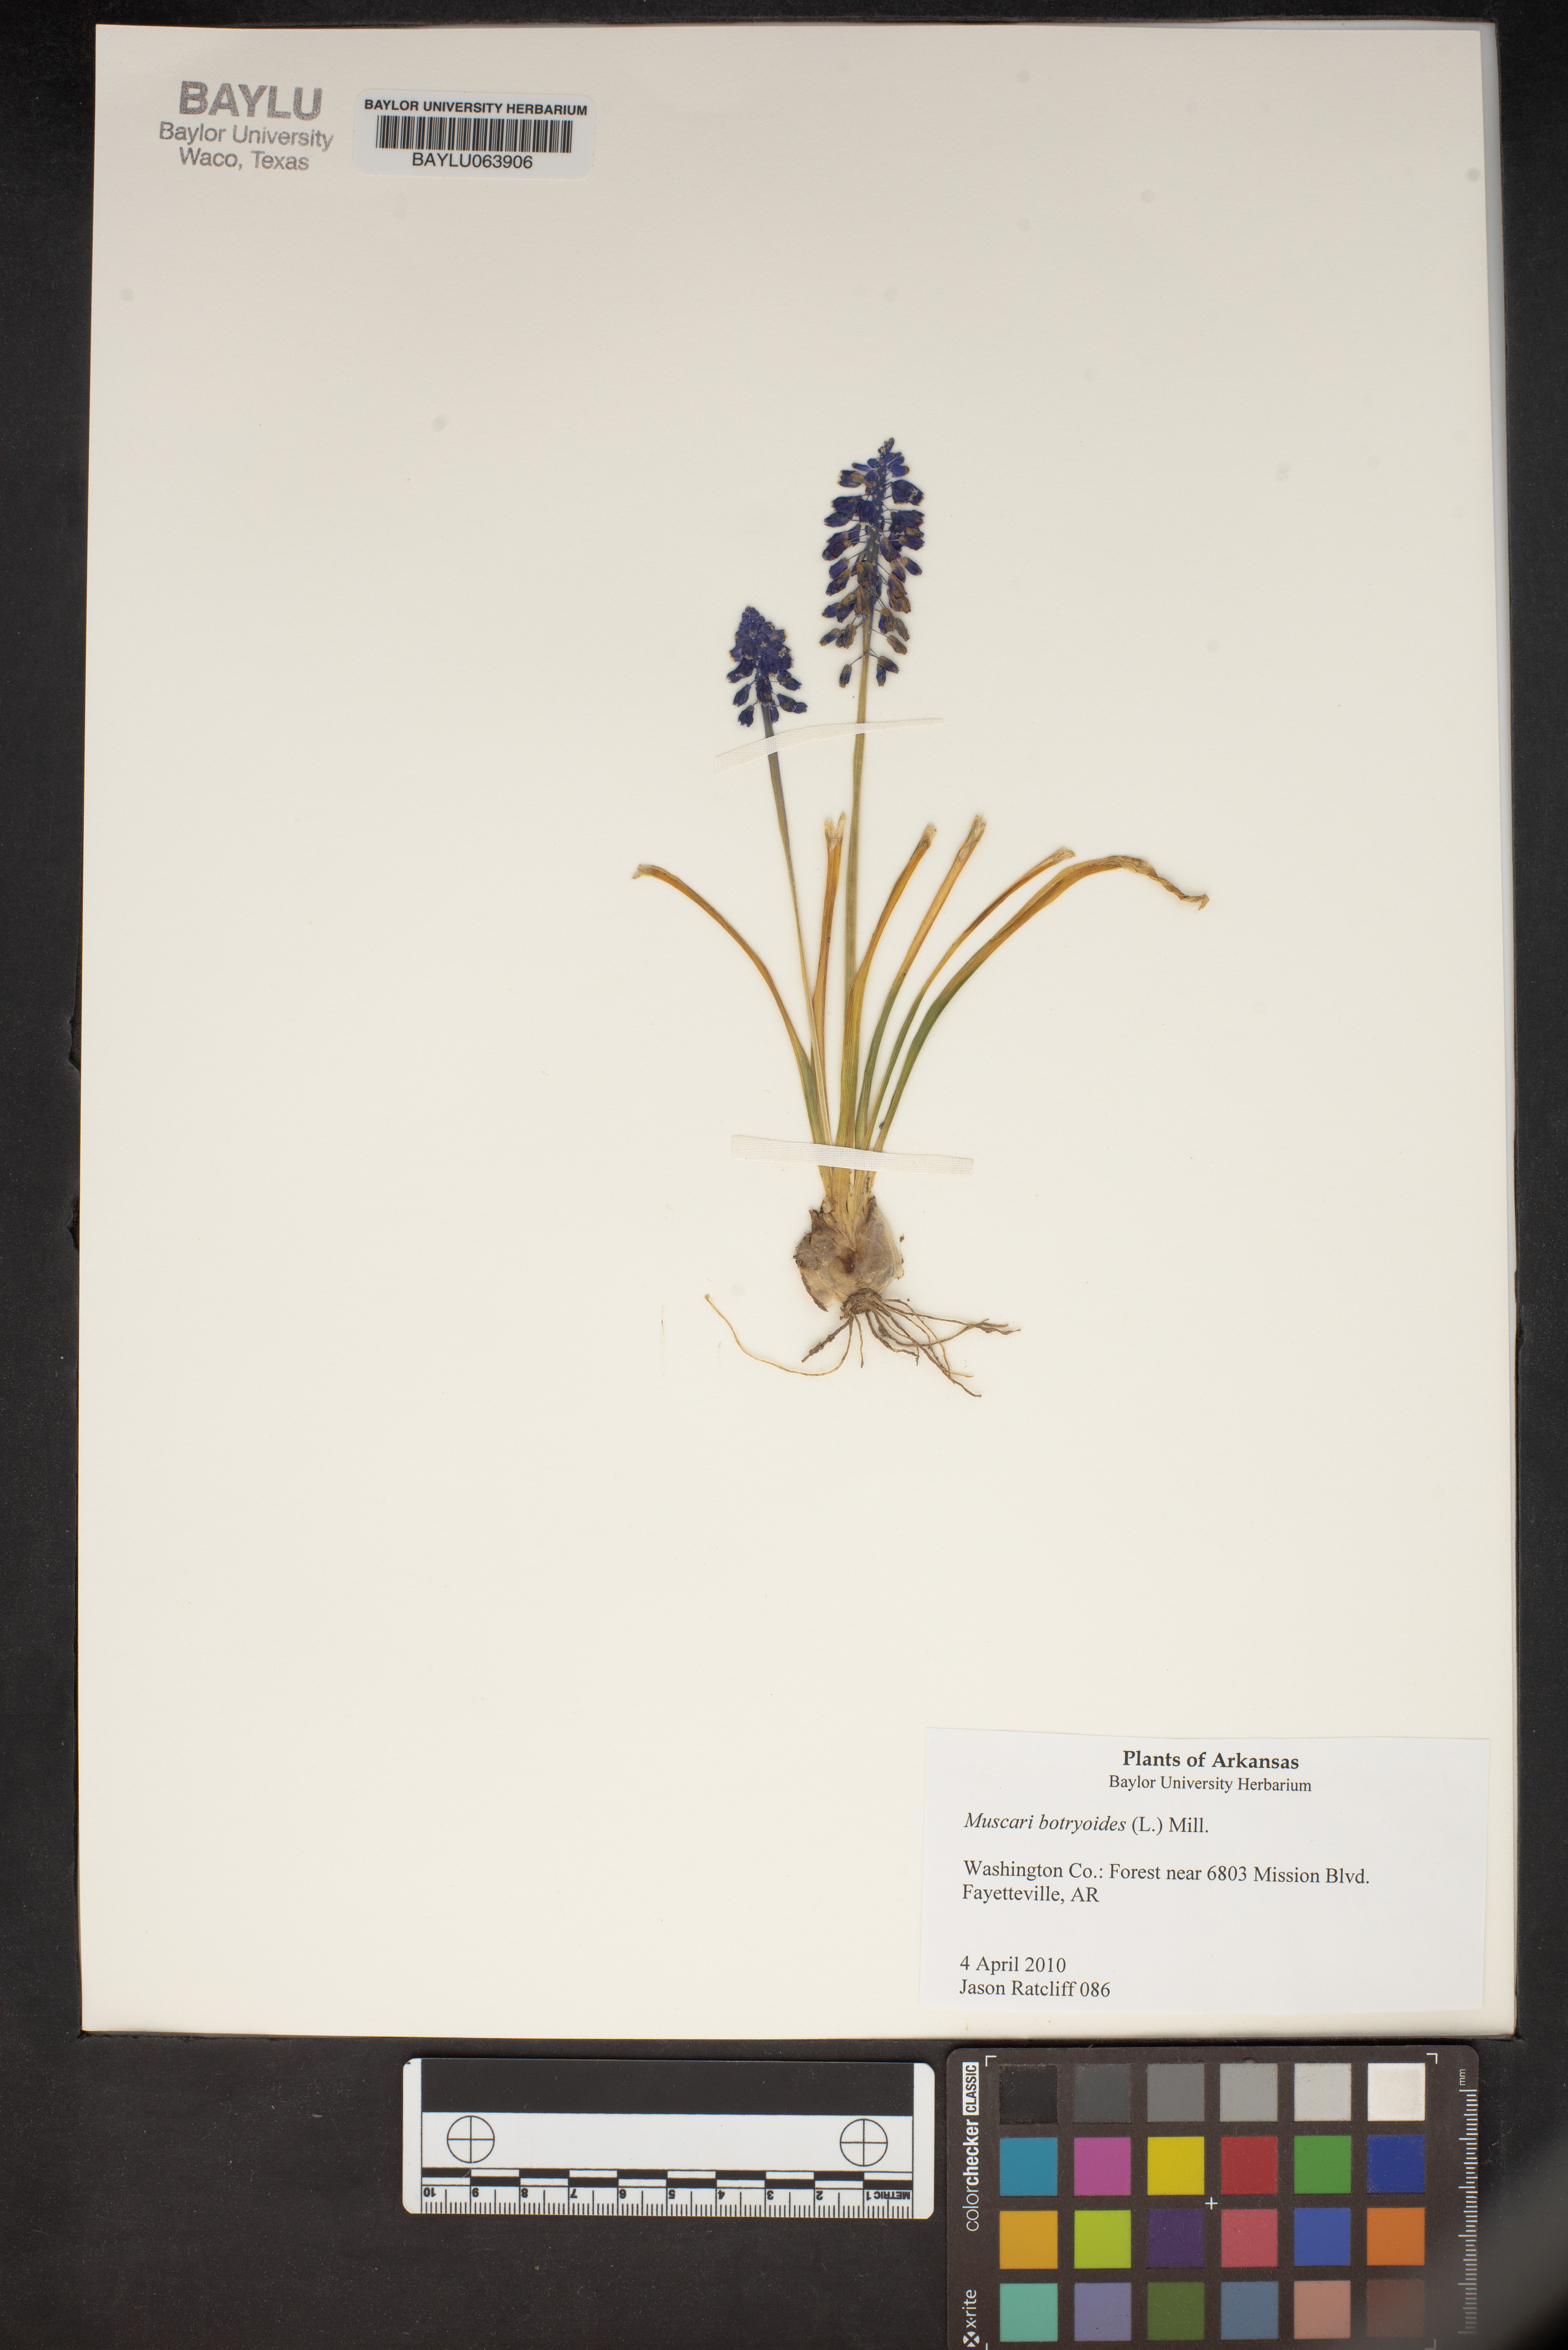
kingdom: Plantae
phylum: Tracheophyta
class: Liliopsida
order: Asparagales
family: Asparagaceae
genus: Muscari
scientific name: Muscari botryoides
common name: Compact grape-hyacinth
